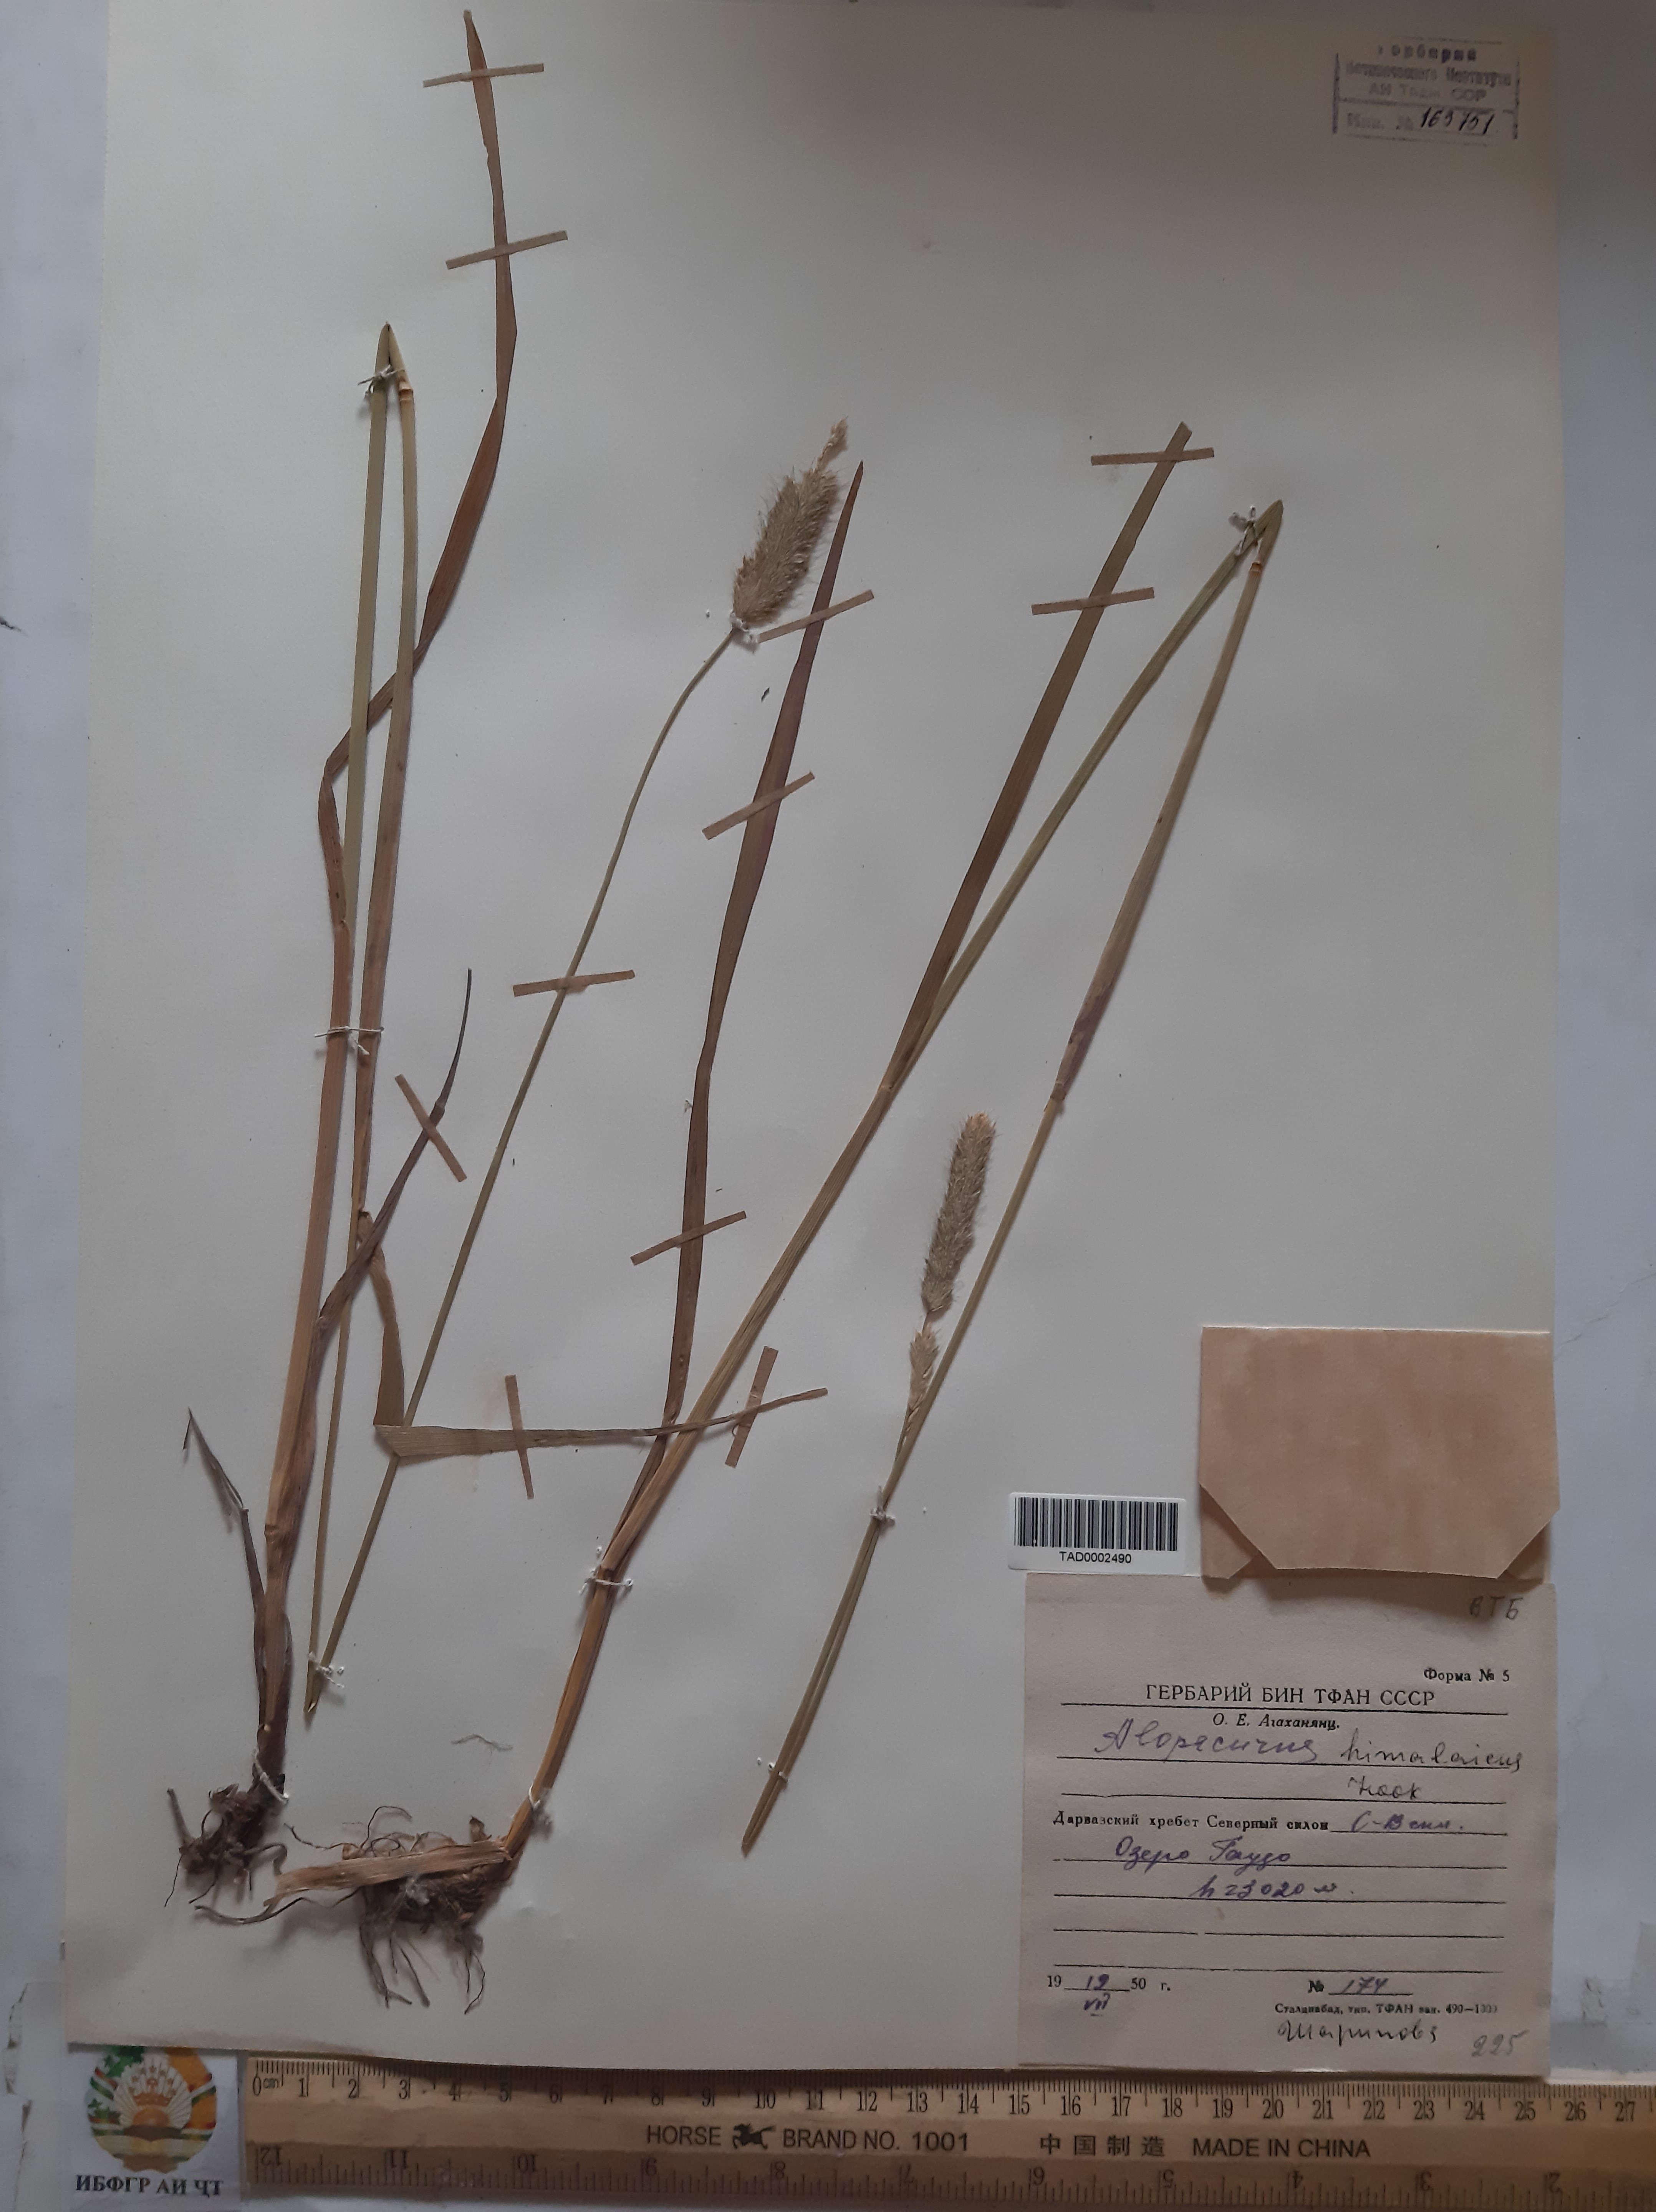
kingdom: Plantae
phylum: Tracheophyta
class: Liliopsida
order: Poales
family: Poaceae
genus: Alopecurus
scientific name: Alopecurus himalaicus
